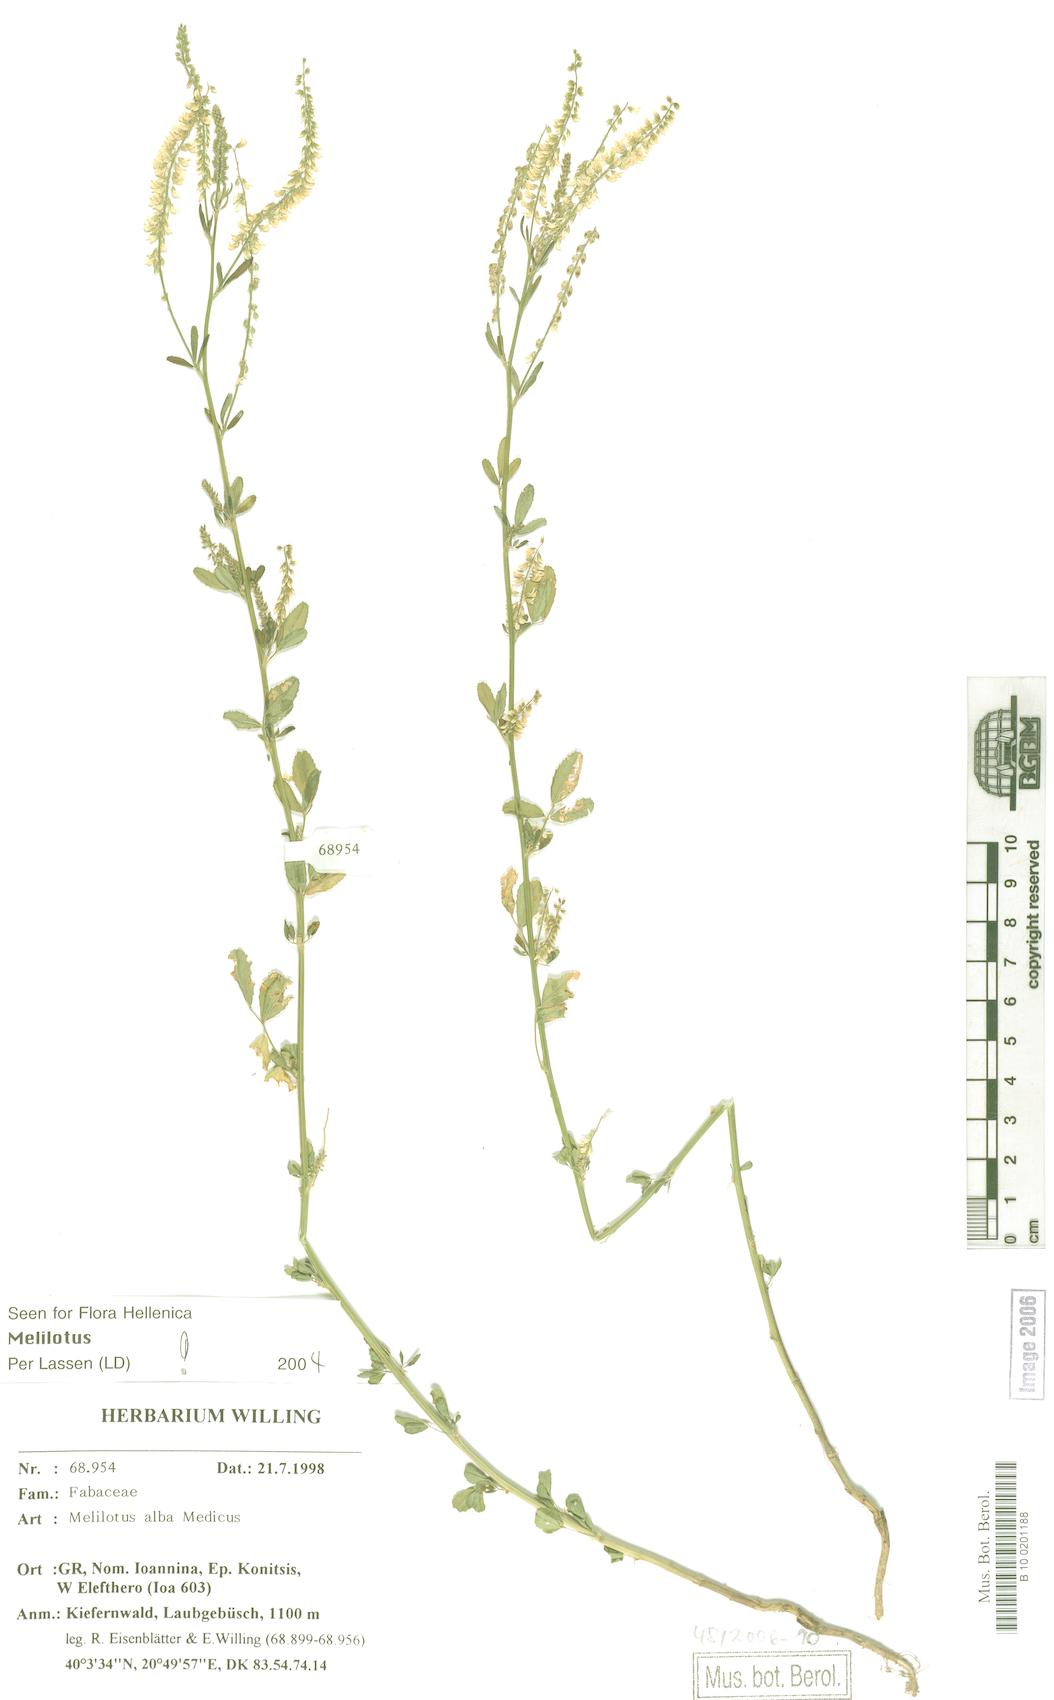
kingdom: Plantae
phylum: Tracheophyta
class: Magnoliopsida
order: Fabales
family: Fabaceae
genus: Melilotus
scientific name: Melilotus albus
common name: White melilot
